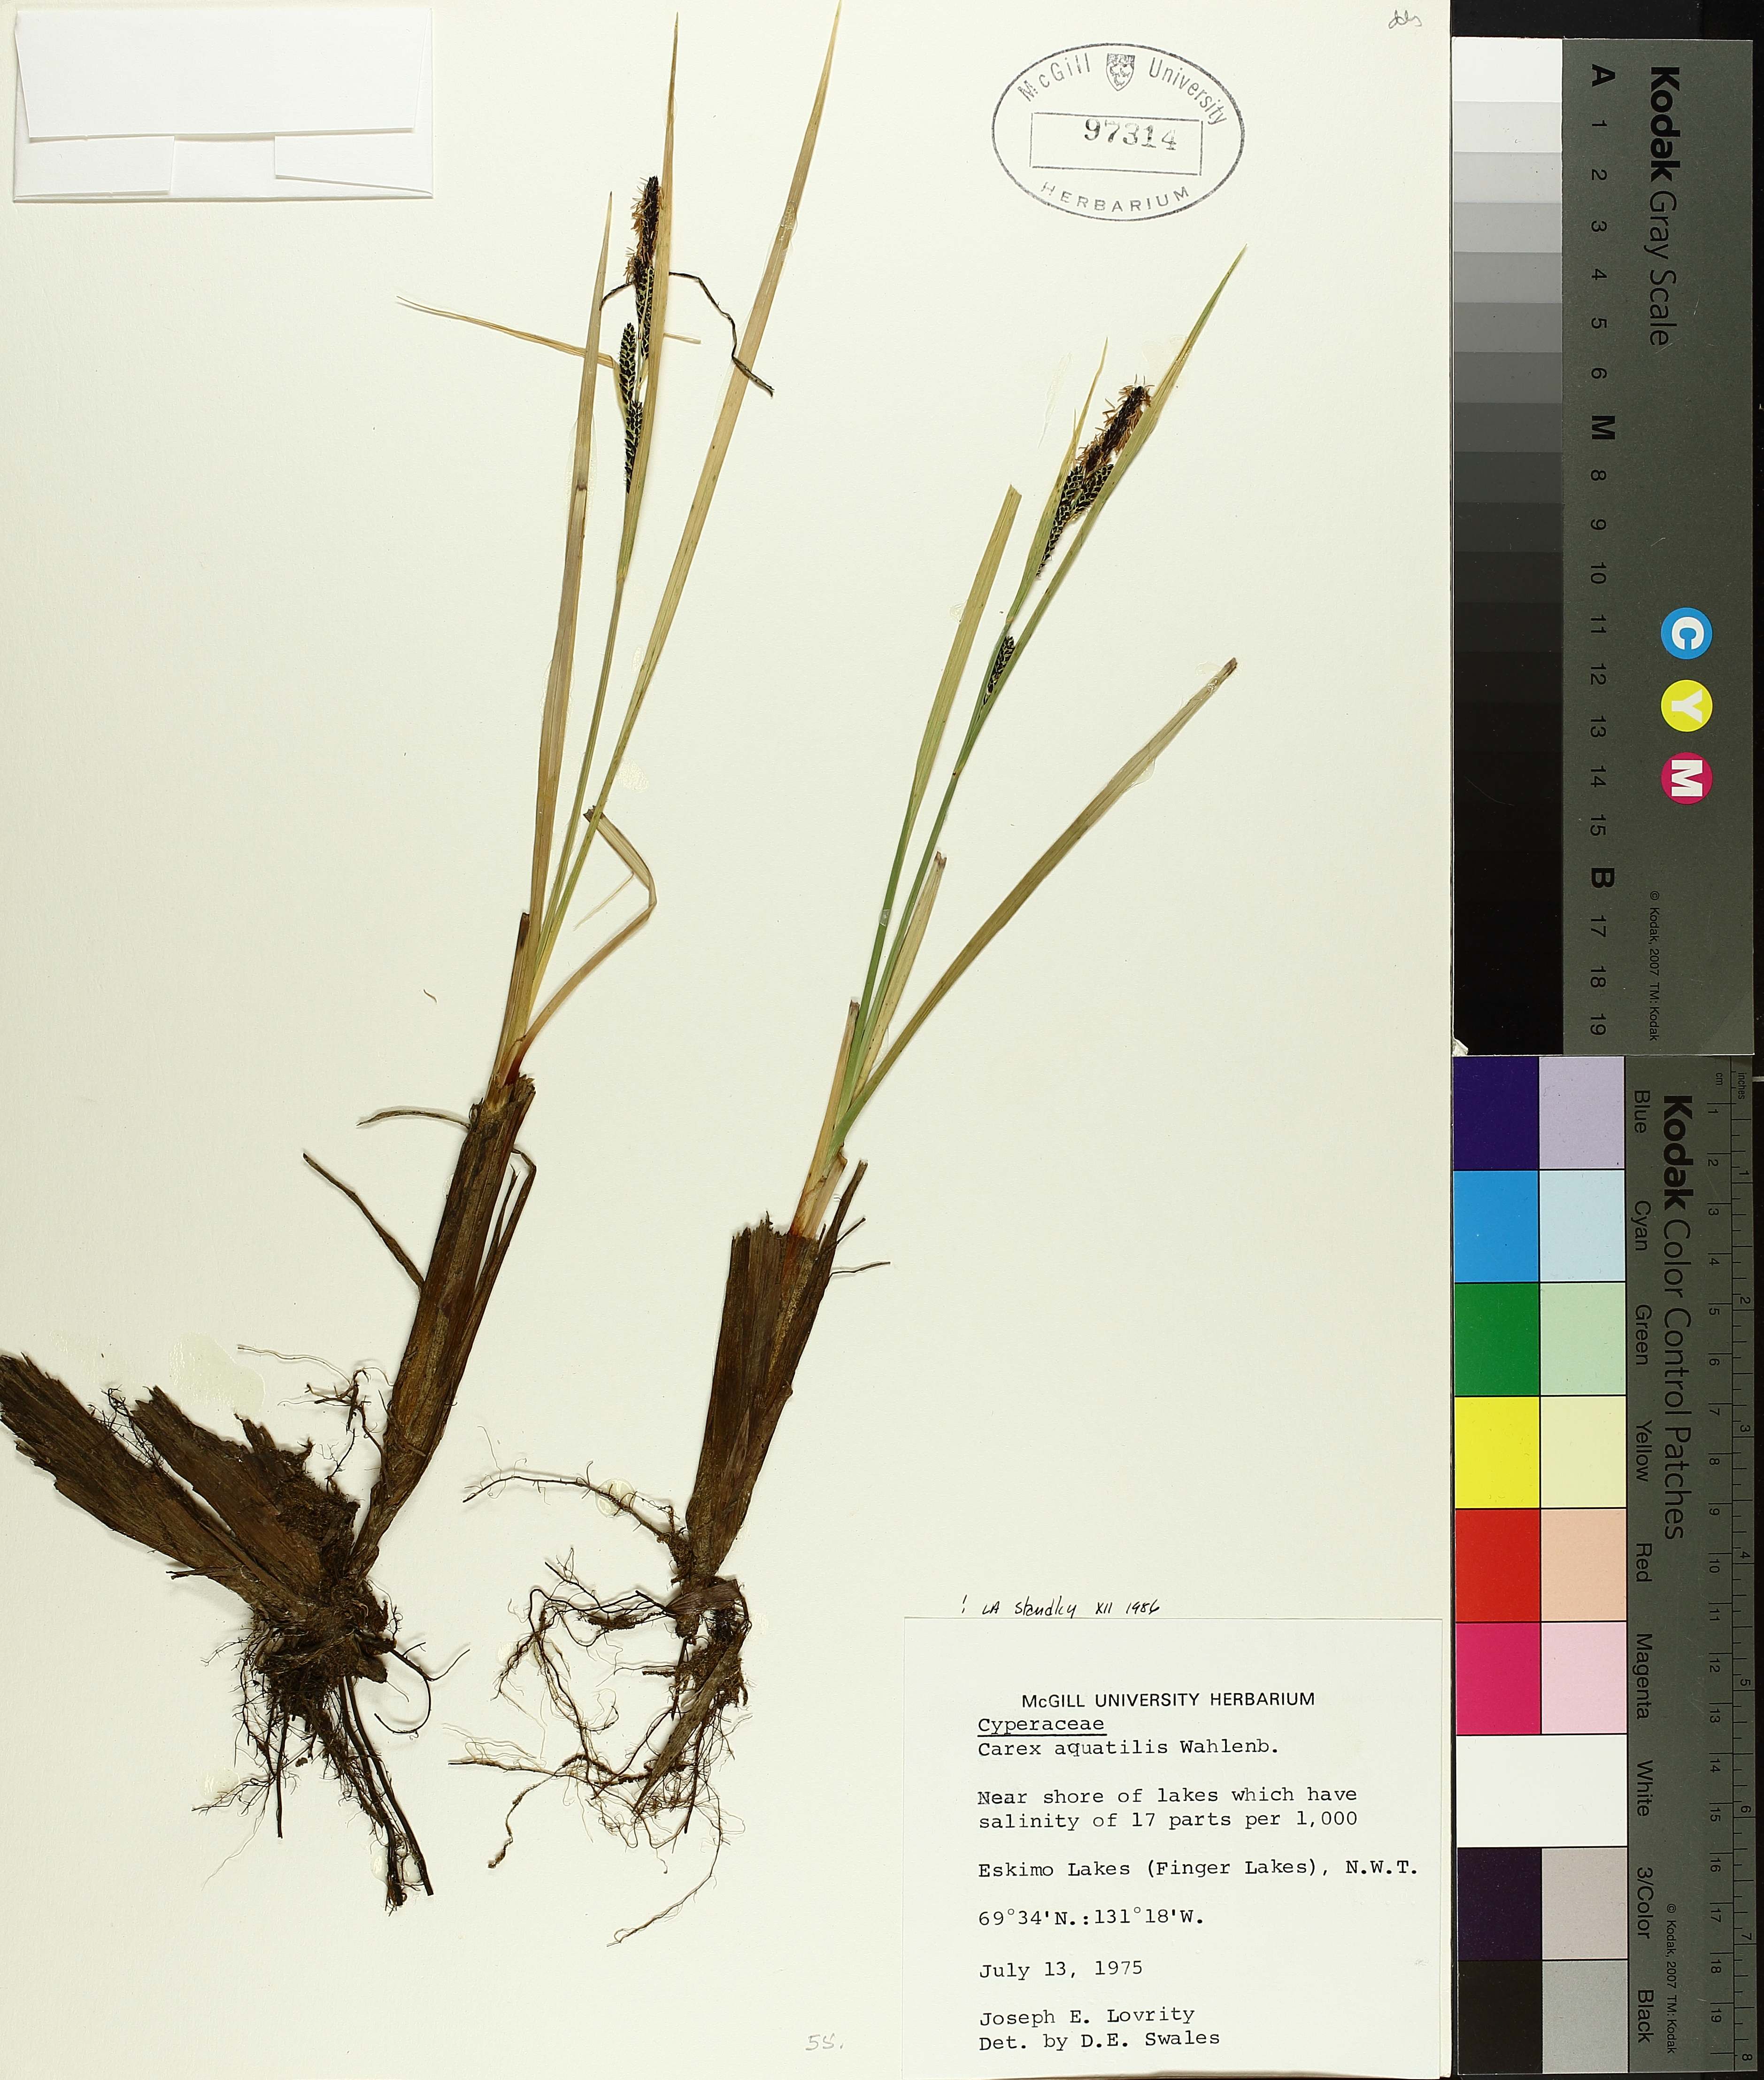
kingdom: Plantae
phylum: Tracheophyta
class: Liliopsida
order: Poales
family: Cyperaceae
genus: Carex
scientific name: Carex aquatilis
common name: Water sedge
